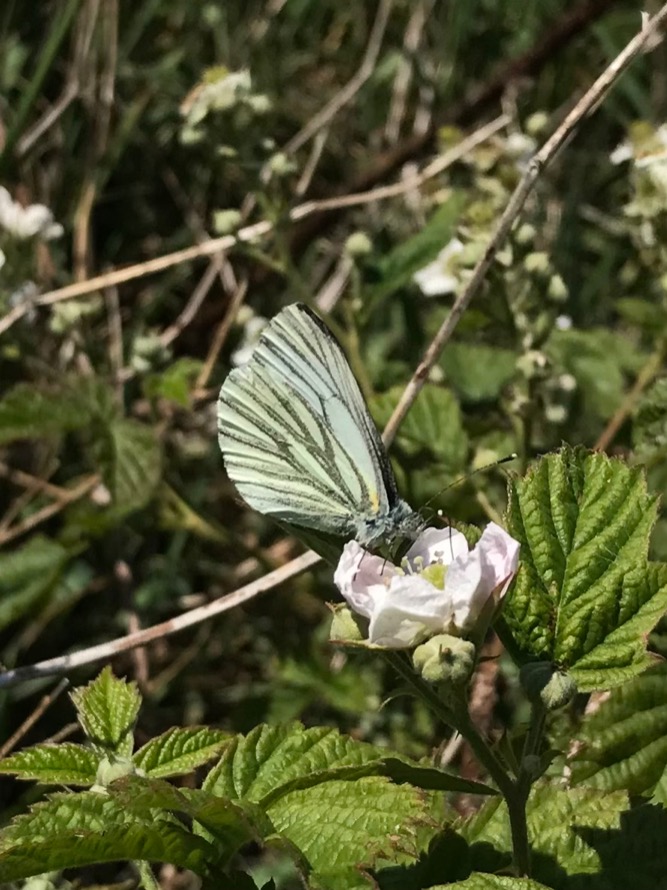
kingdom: Animalia
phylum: Arthropoda
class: Insecta
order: Lepidoptera
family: Pieridae
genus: Pieris
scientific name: Pieris napi
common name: Grønåret kålsommerfugl
